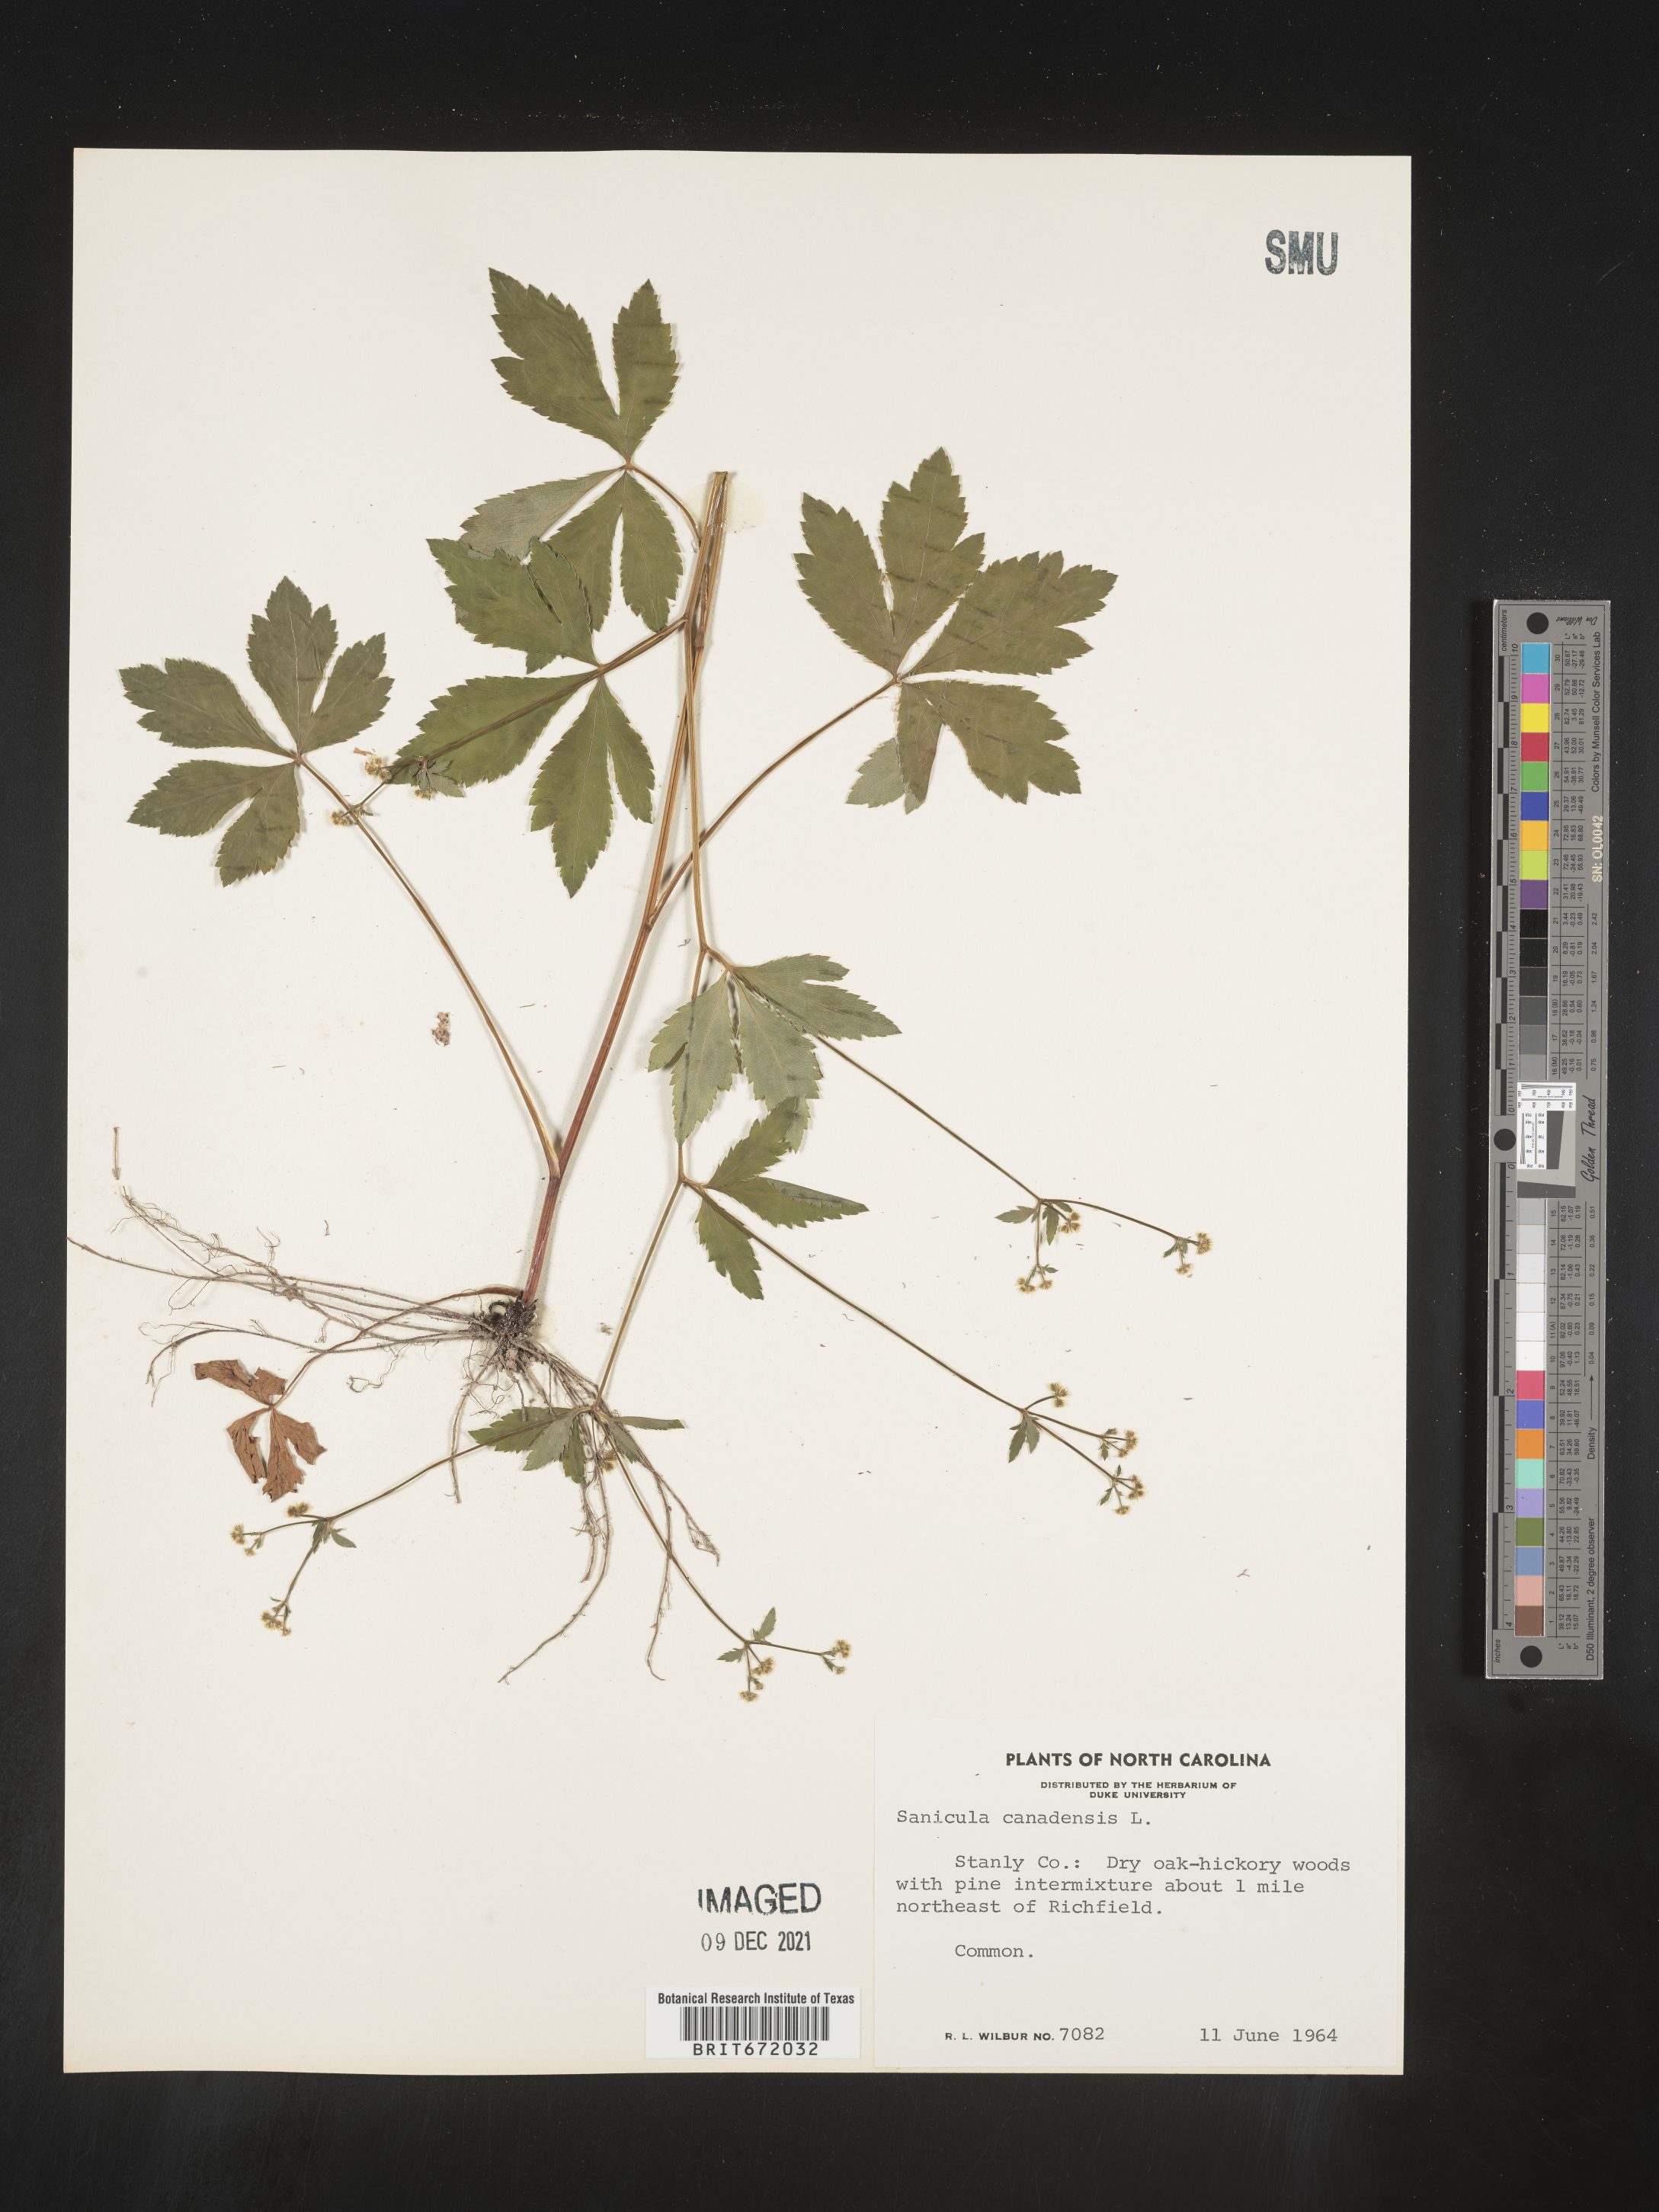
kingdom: Plantae
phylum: Tracheophyta
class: Magnoliopsida
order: Apiales
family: Apiaceae
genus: Sanicula
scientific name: Sanicula canadensis
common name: Canada sanicle
